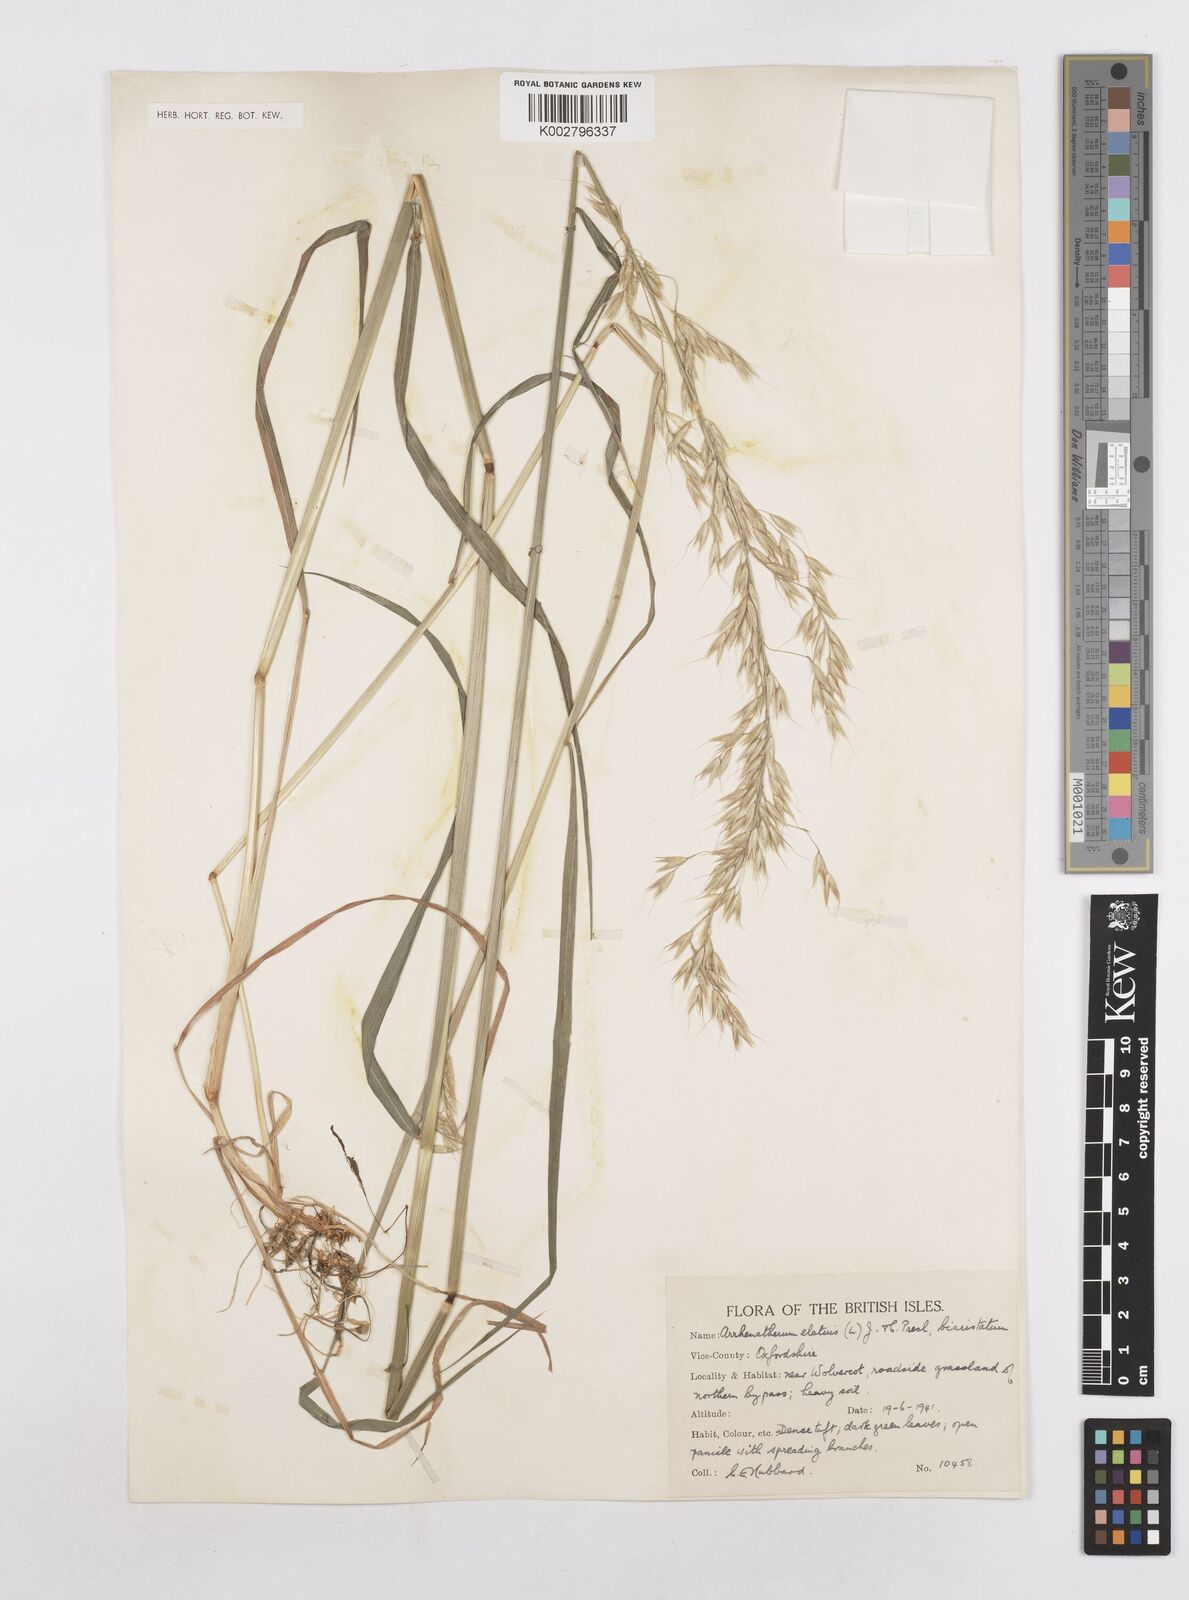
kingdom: Plantae
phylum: Tracheophyta
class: Liliopsida
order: Poales
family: Poaceae
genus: Arrhenatherum
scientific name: Arrhenatherum elatius
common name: Tall oatgrass
